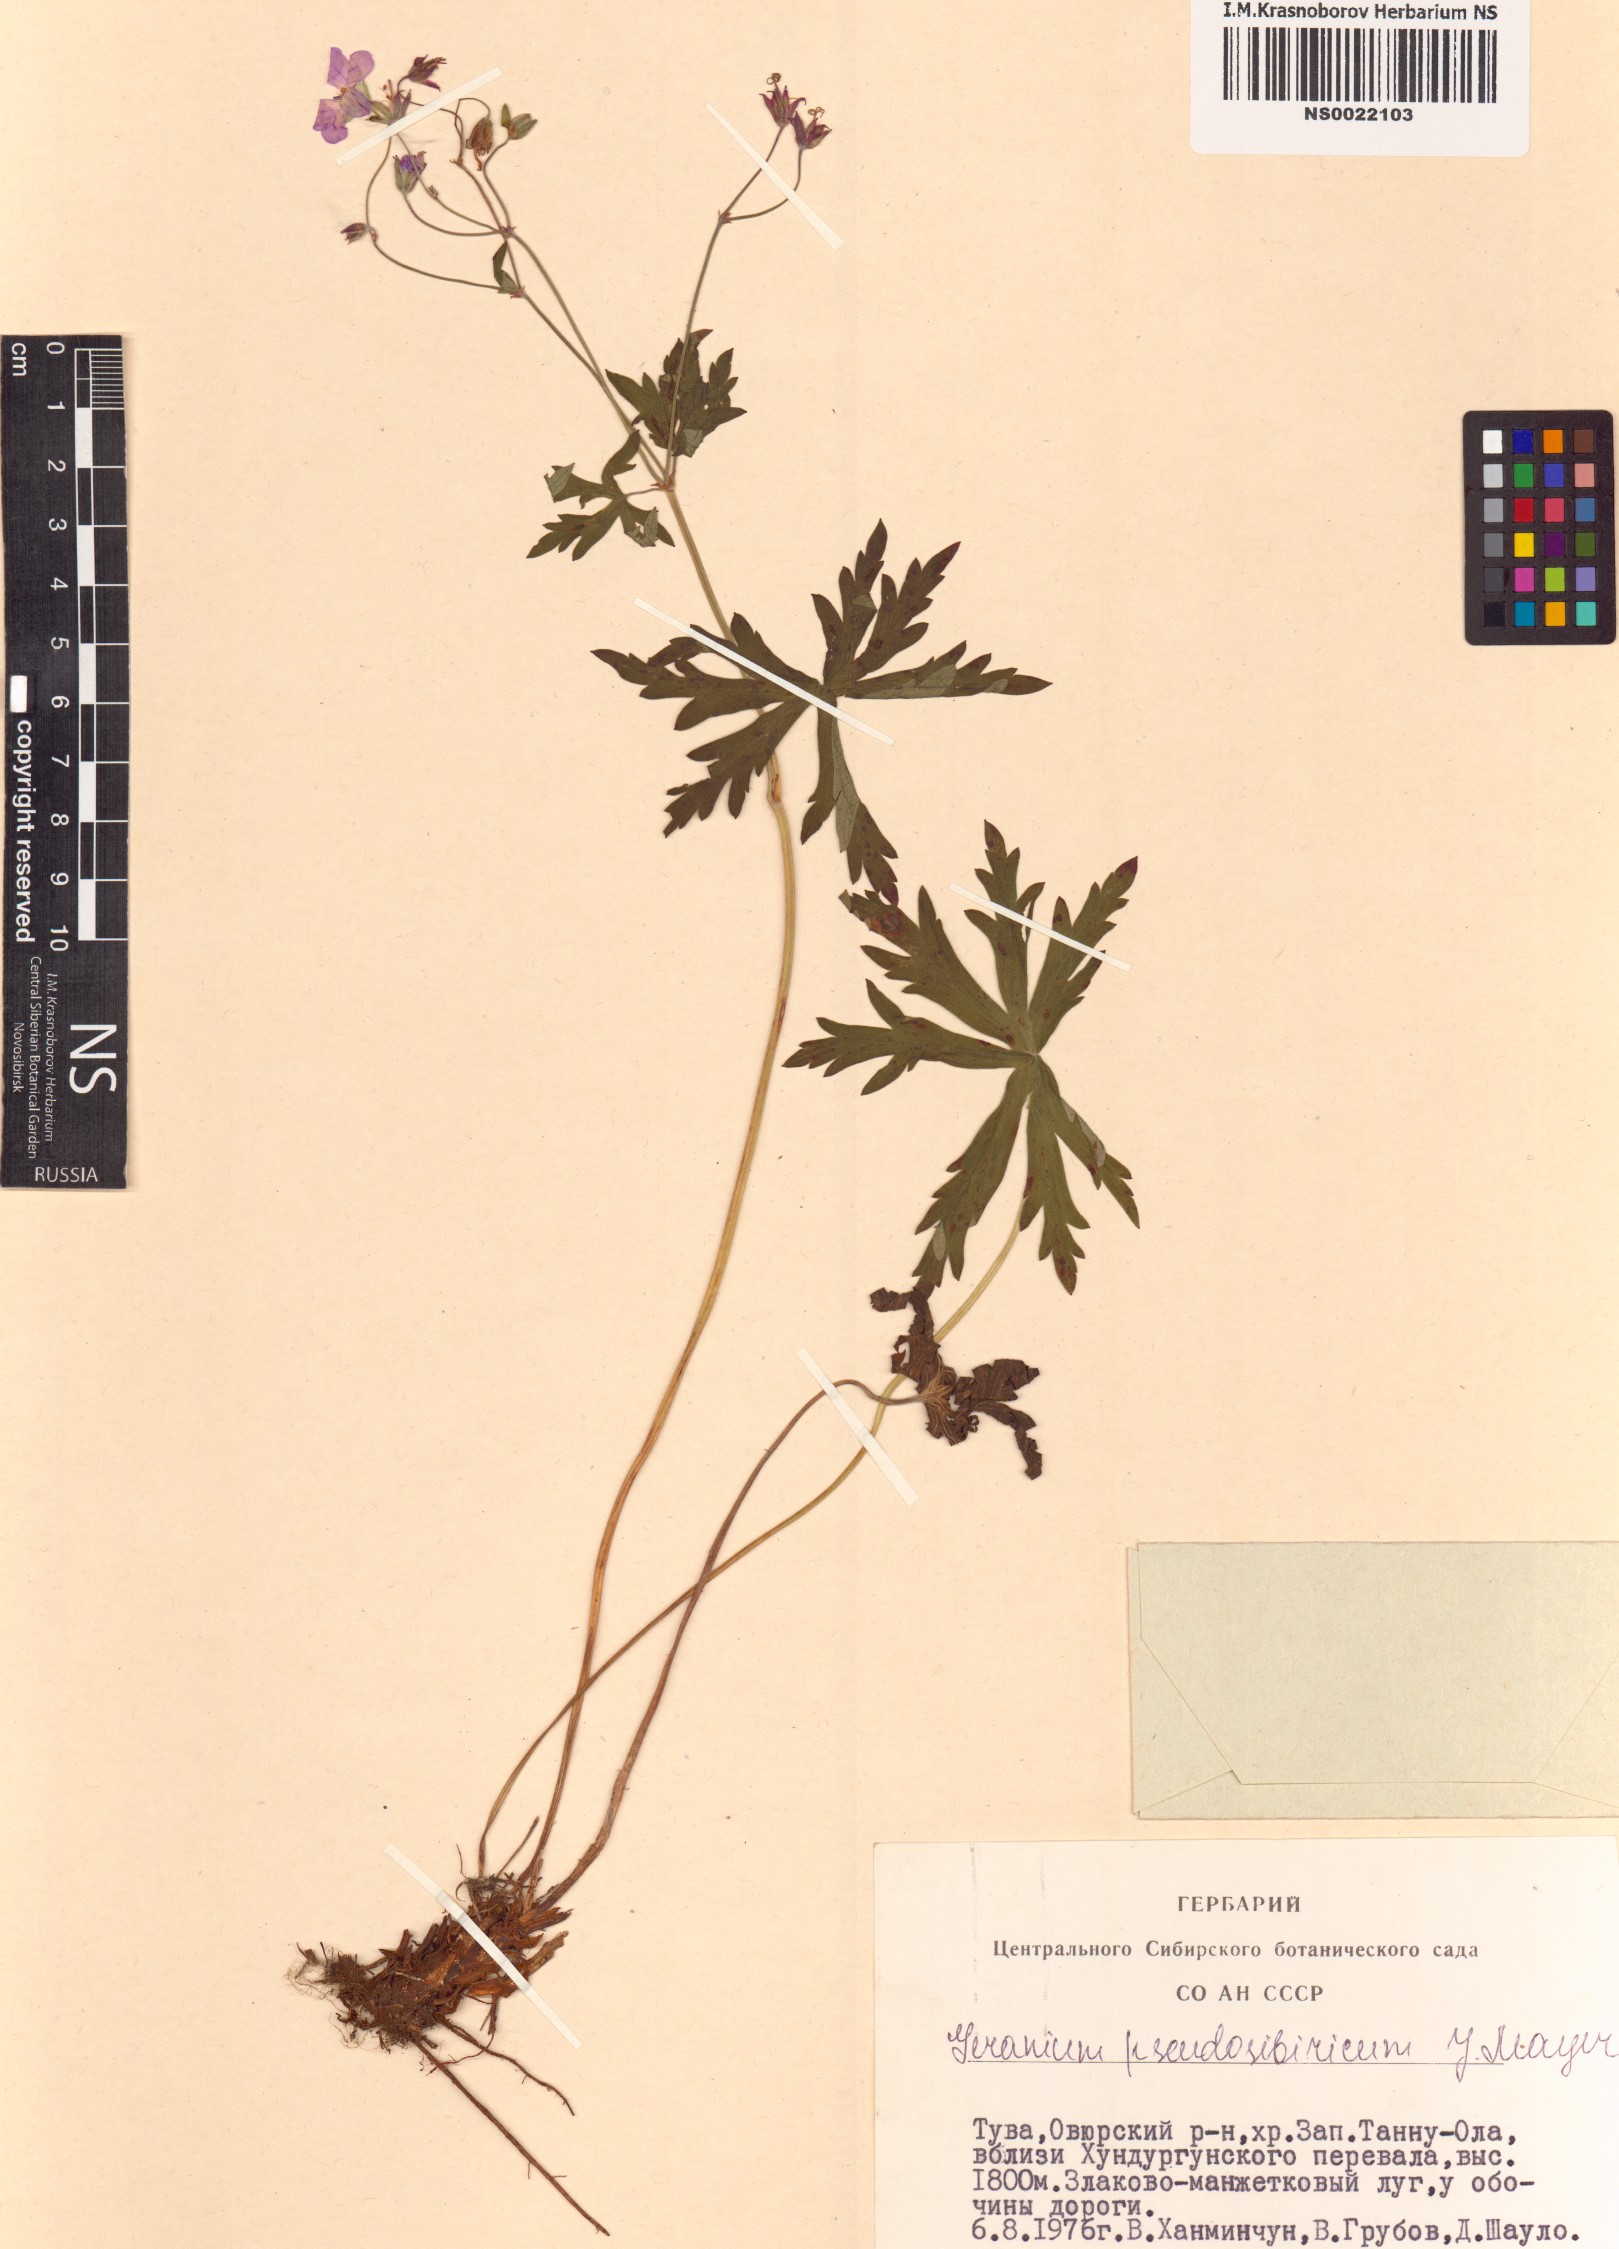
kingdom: Plantae
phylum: Tracheophyta
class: Magnoliopsida
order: Geraniales
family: Geraniaceae
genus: Geranium
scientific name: Geranium pseudosibiricum
